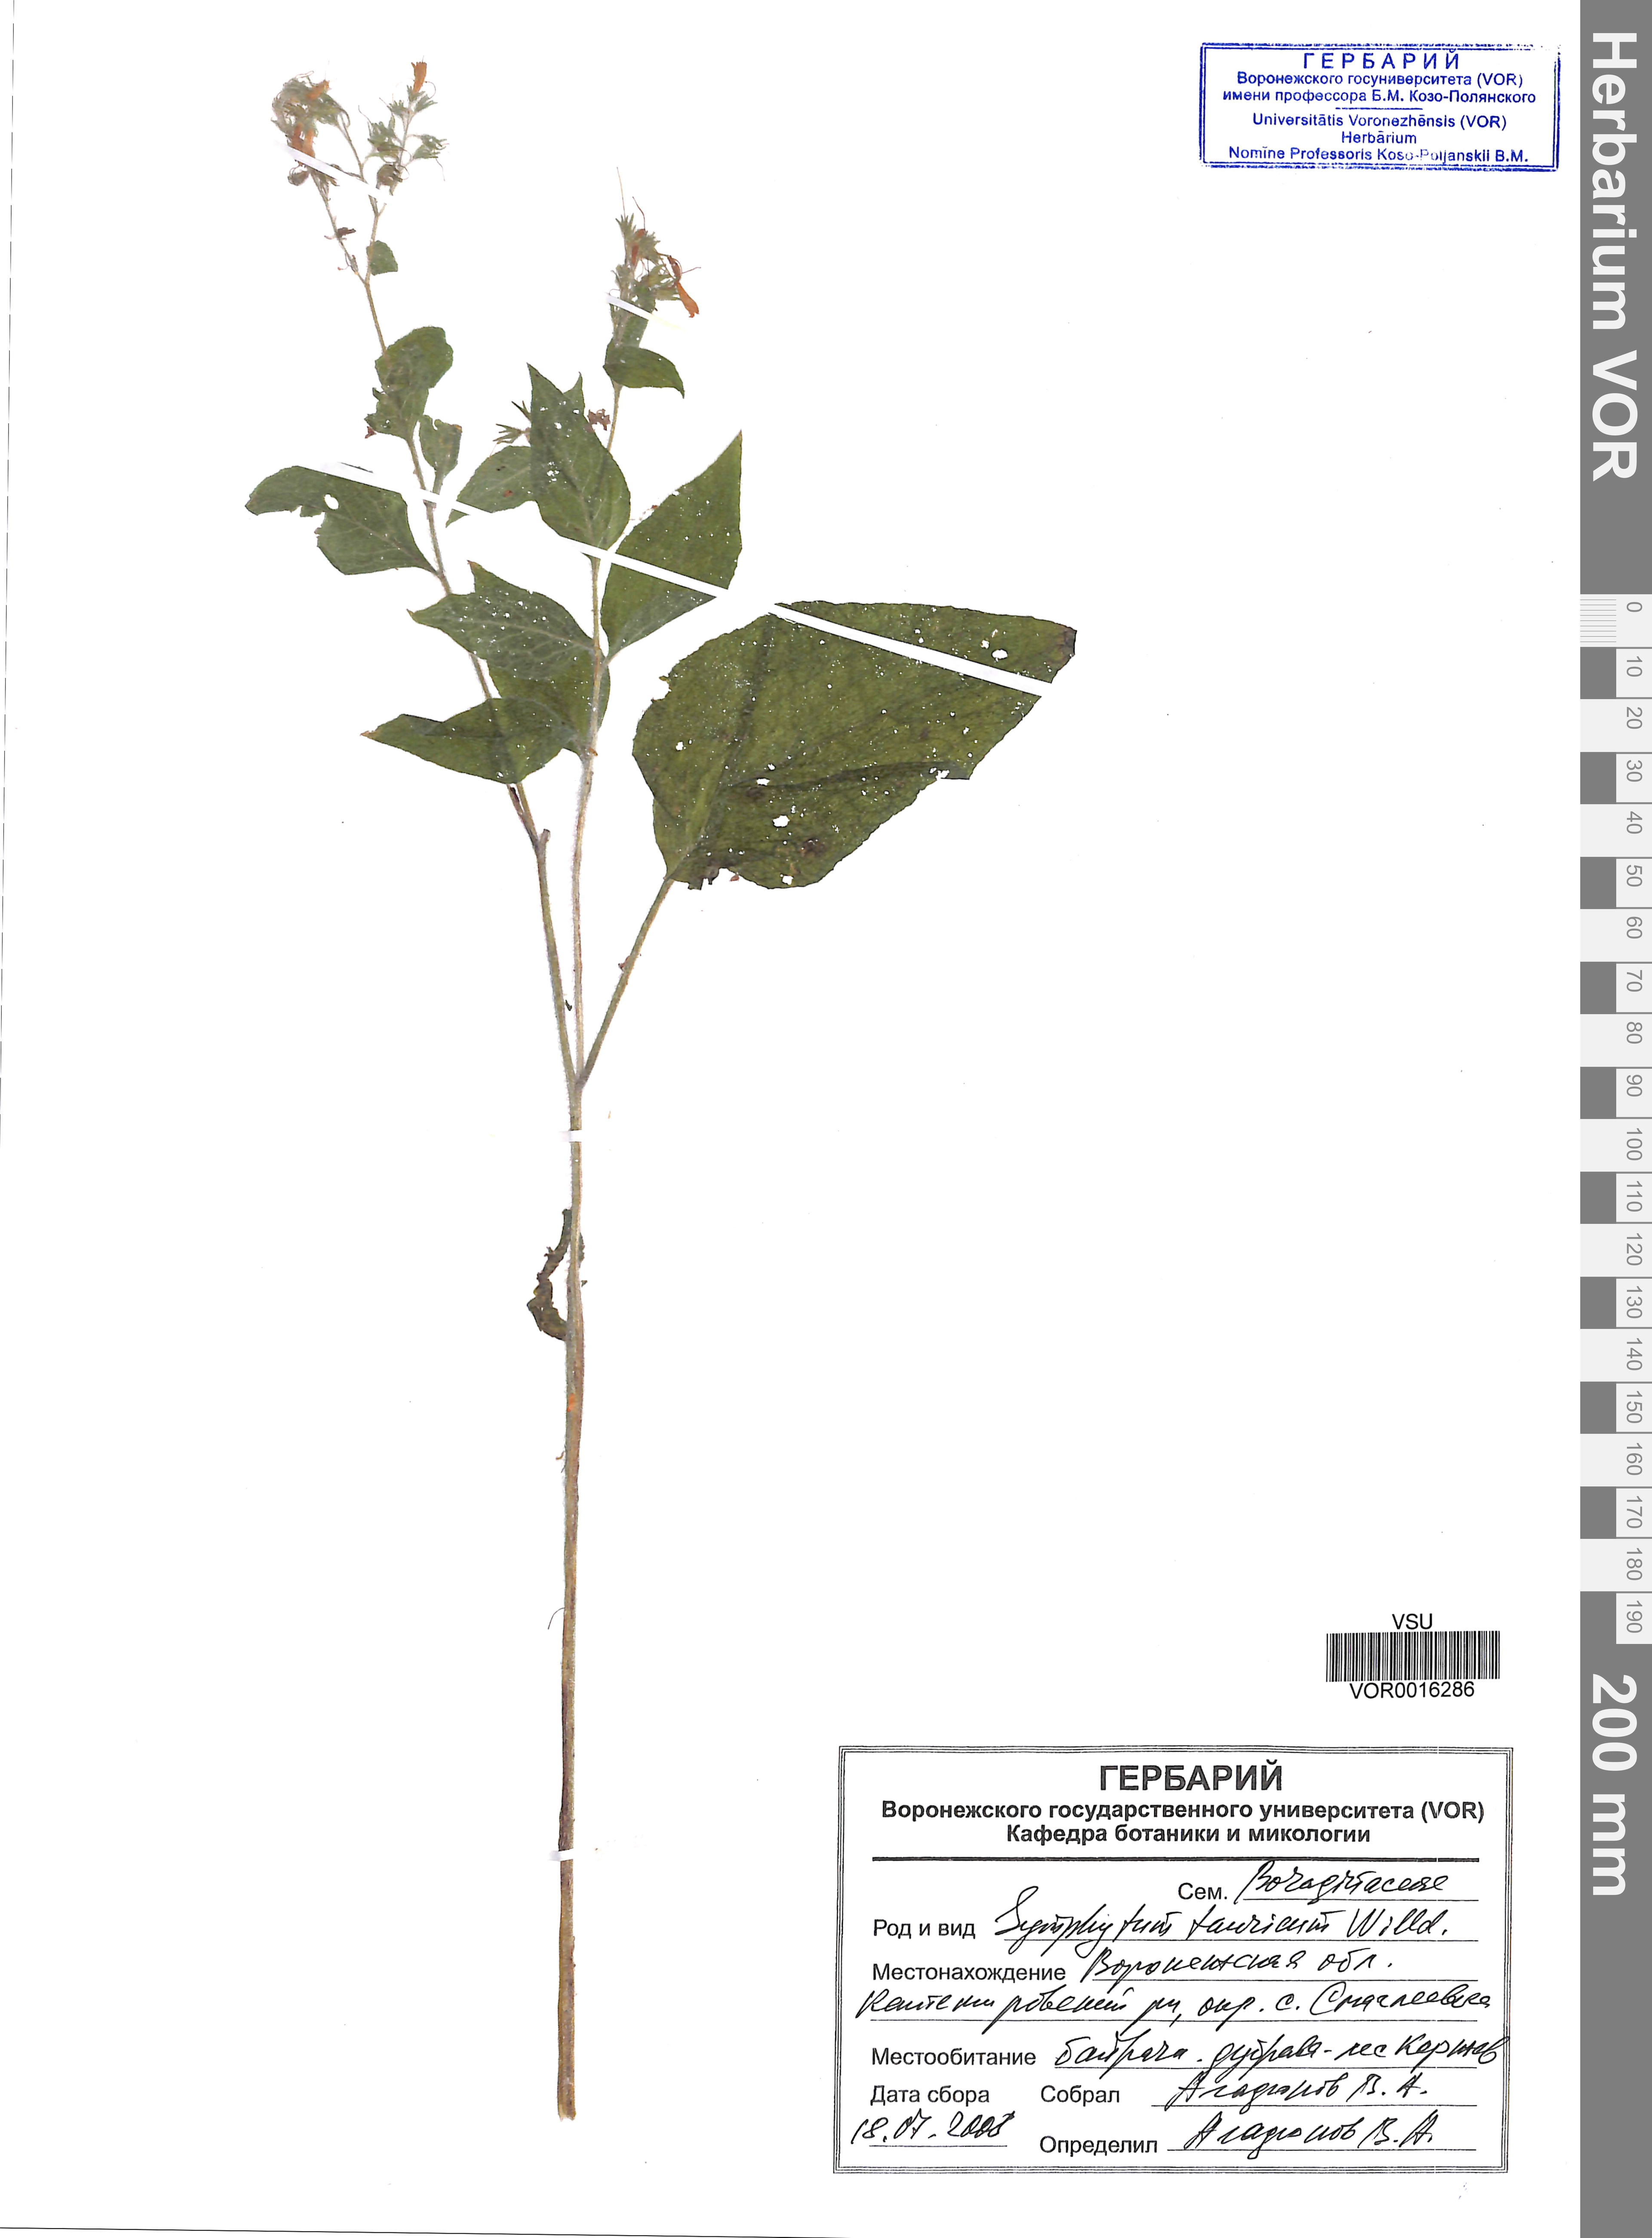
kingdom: Plantae
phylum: Tracheophyta
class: Magnoliopsida
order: Boraginales
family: Boraginaceae
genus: Symphytum
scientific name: Symphytum tauricum
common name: Crimean comfrey
